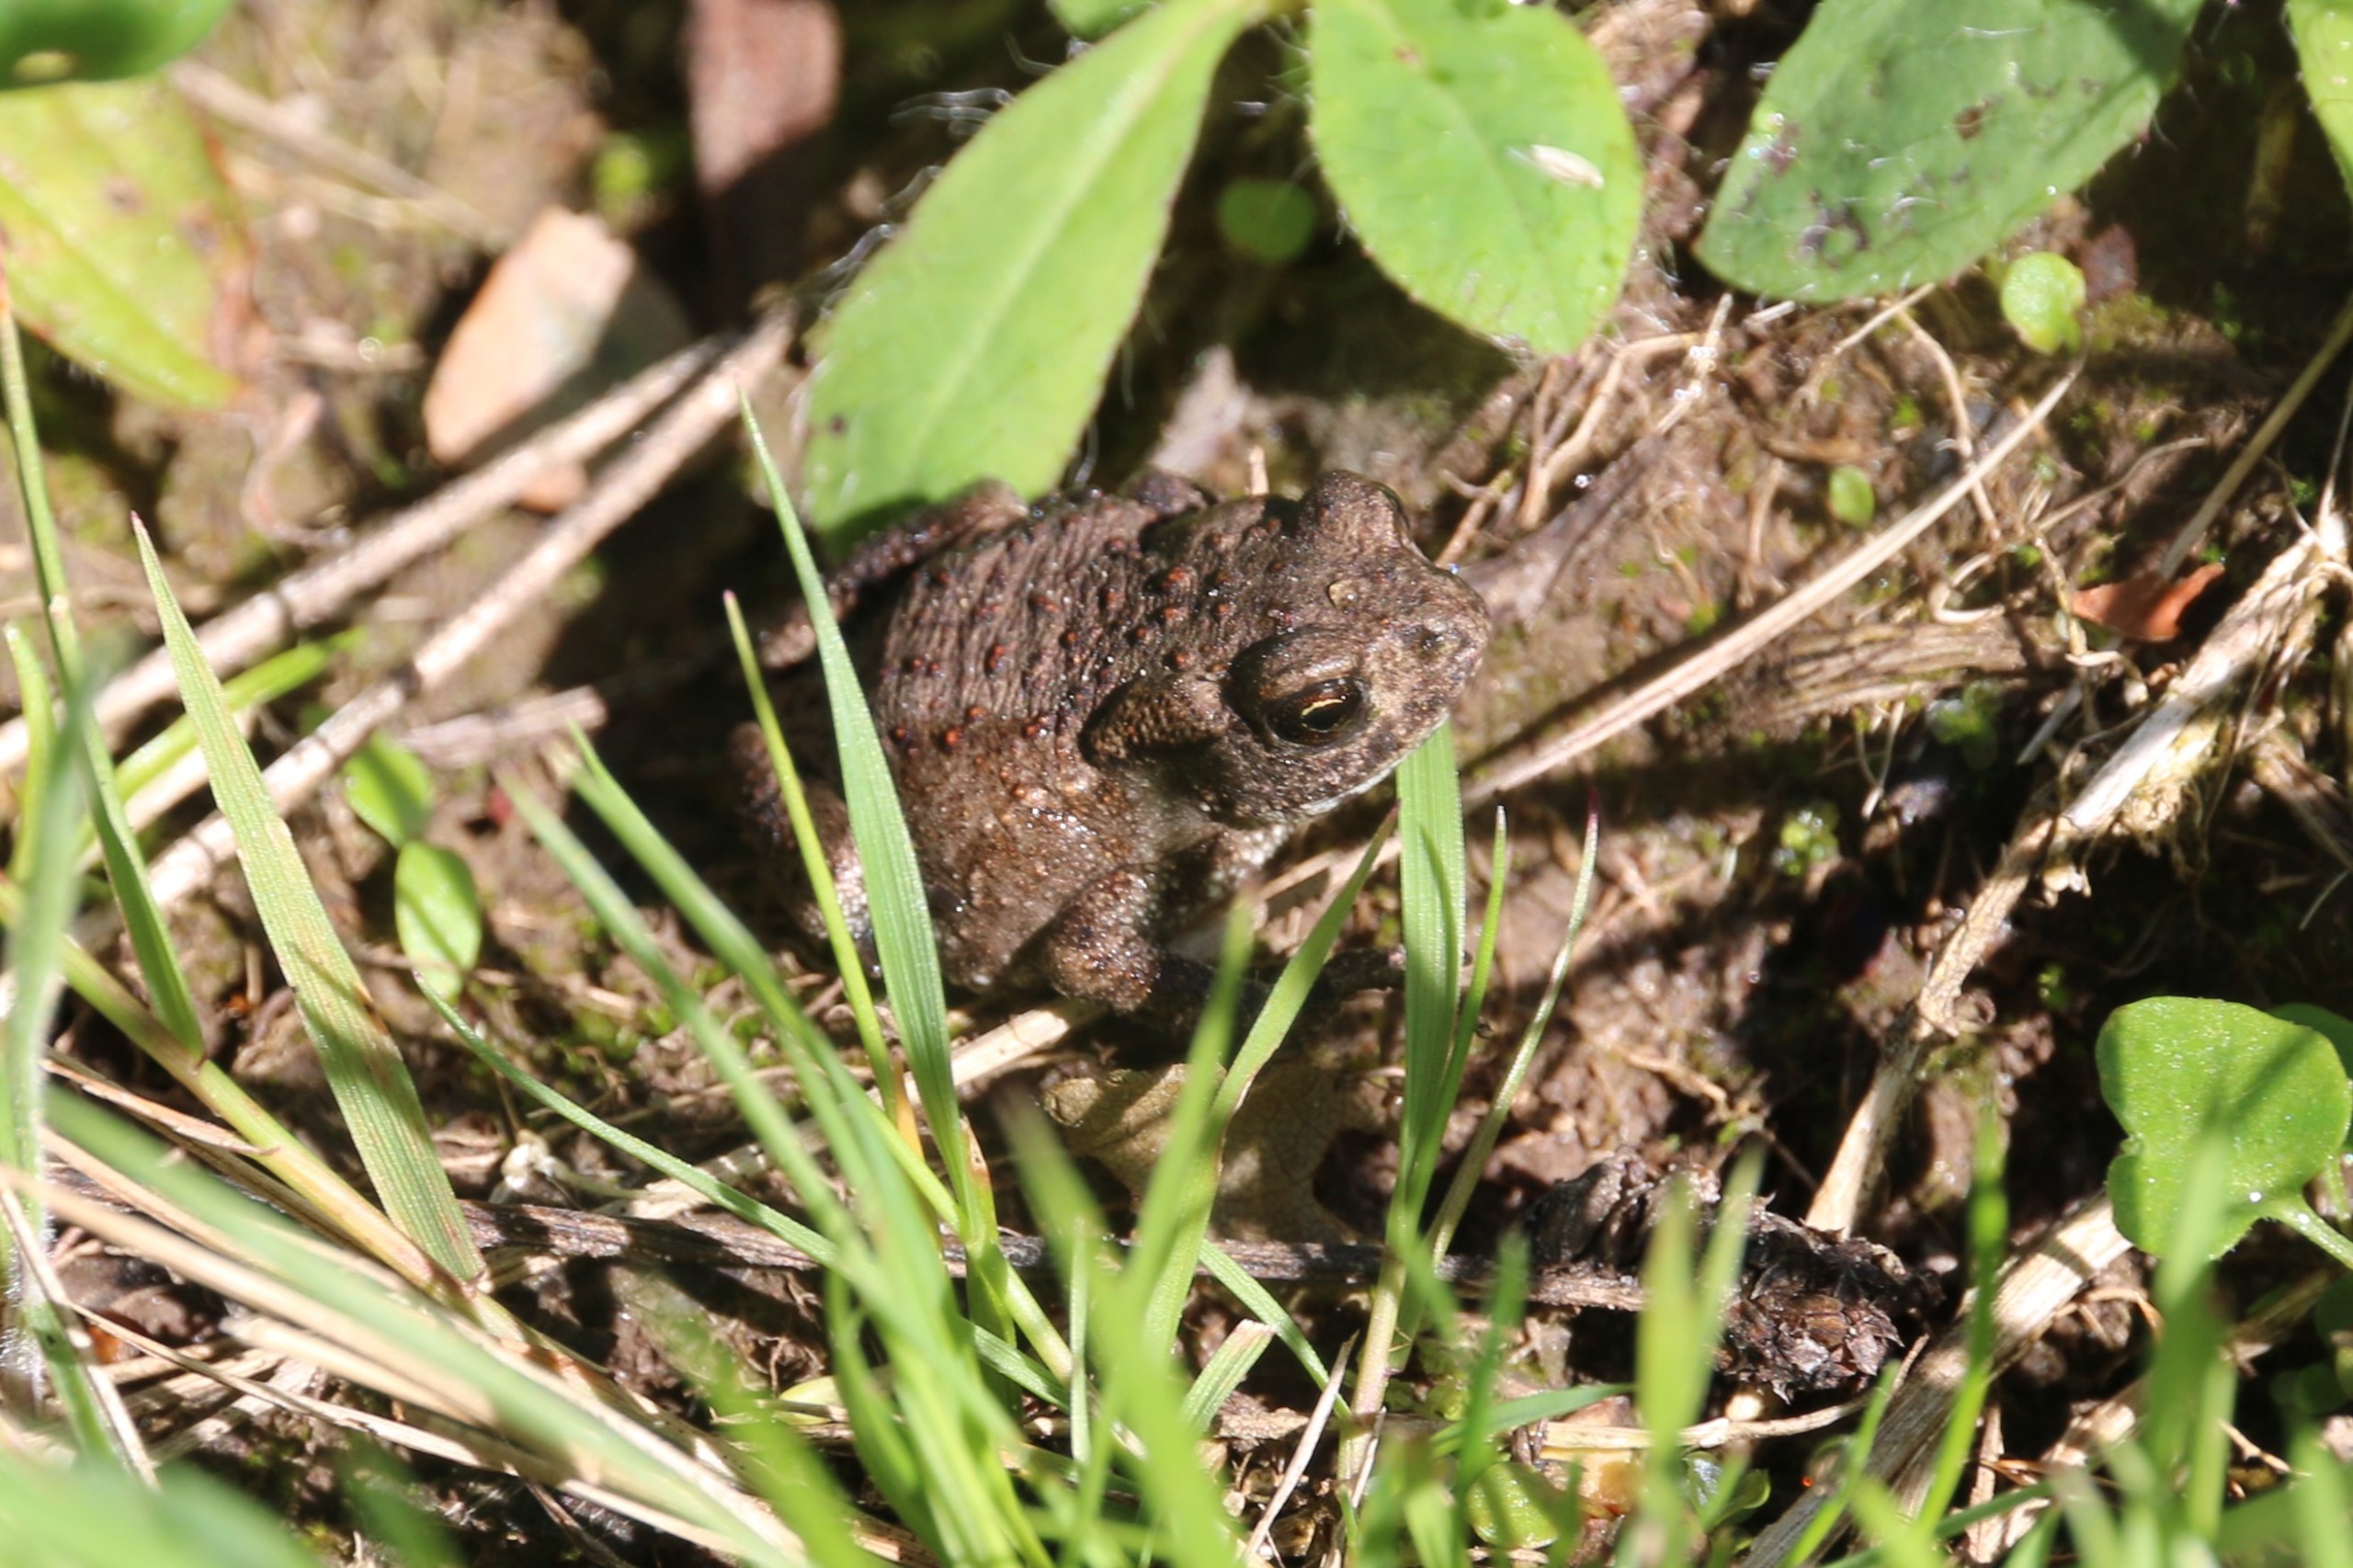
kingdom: Animalia
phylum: Chordata
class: Amphibia
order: Anura
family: Bufonidae
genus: Bufo
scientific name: Bufo bufo
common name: Skrubtudse
